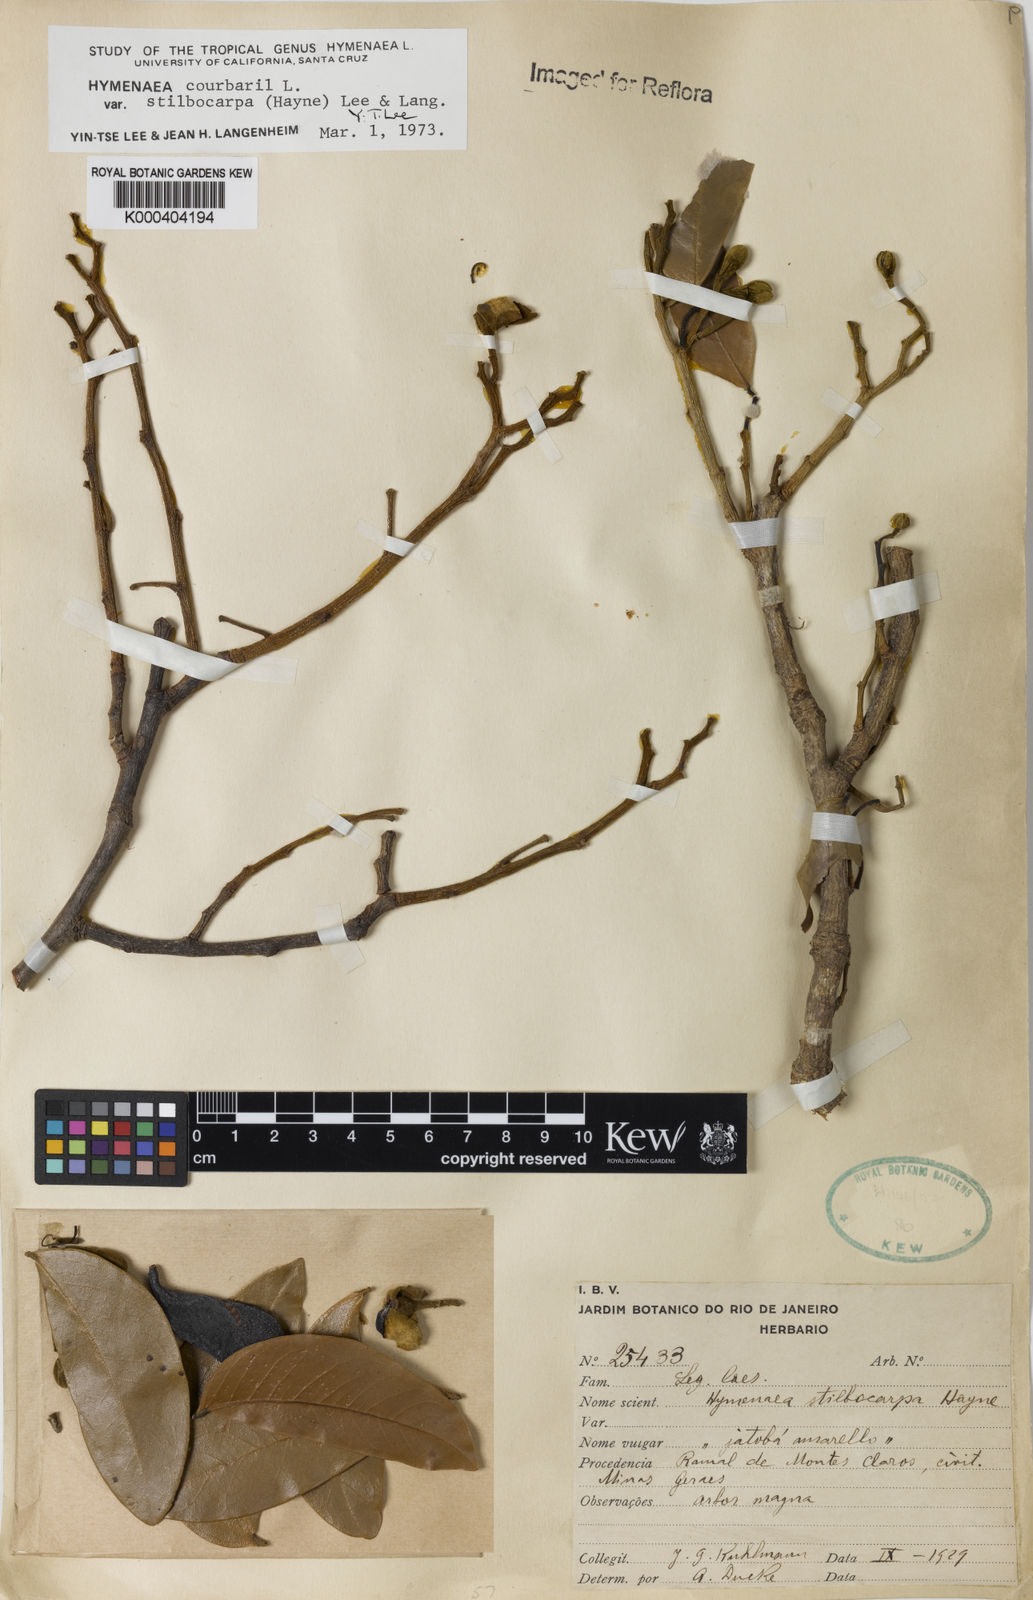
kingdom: Plantae
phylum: Tracheophyta
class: Magnoliopsida
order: Fabales
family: Fabaceae
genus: Hymenaea
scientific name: Hymenaea courbaril
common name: Brazilian copal
